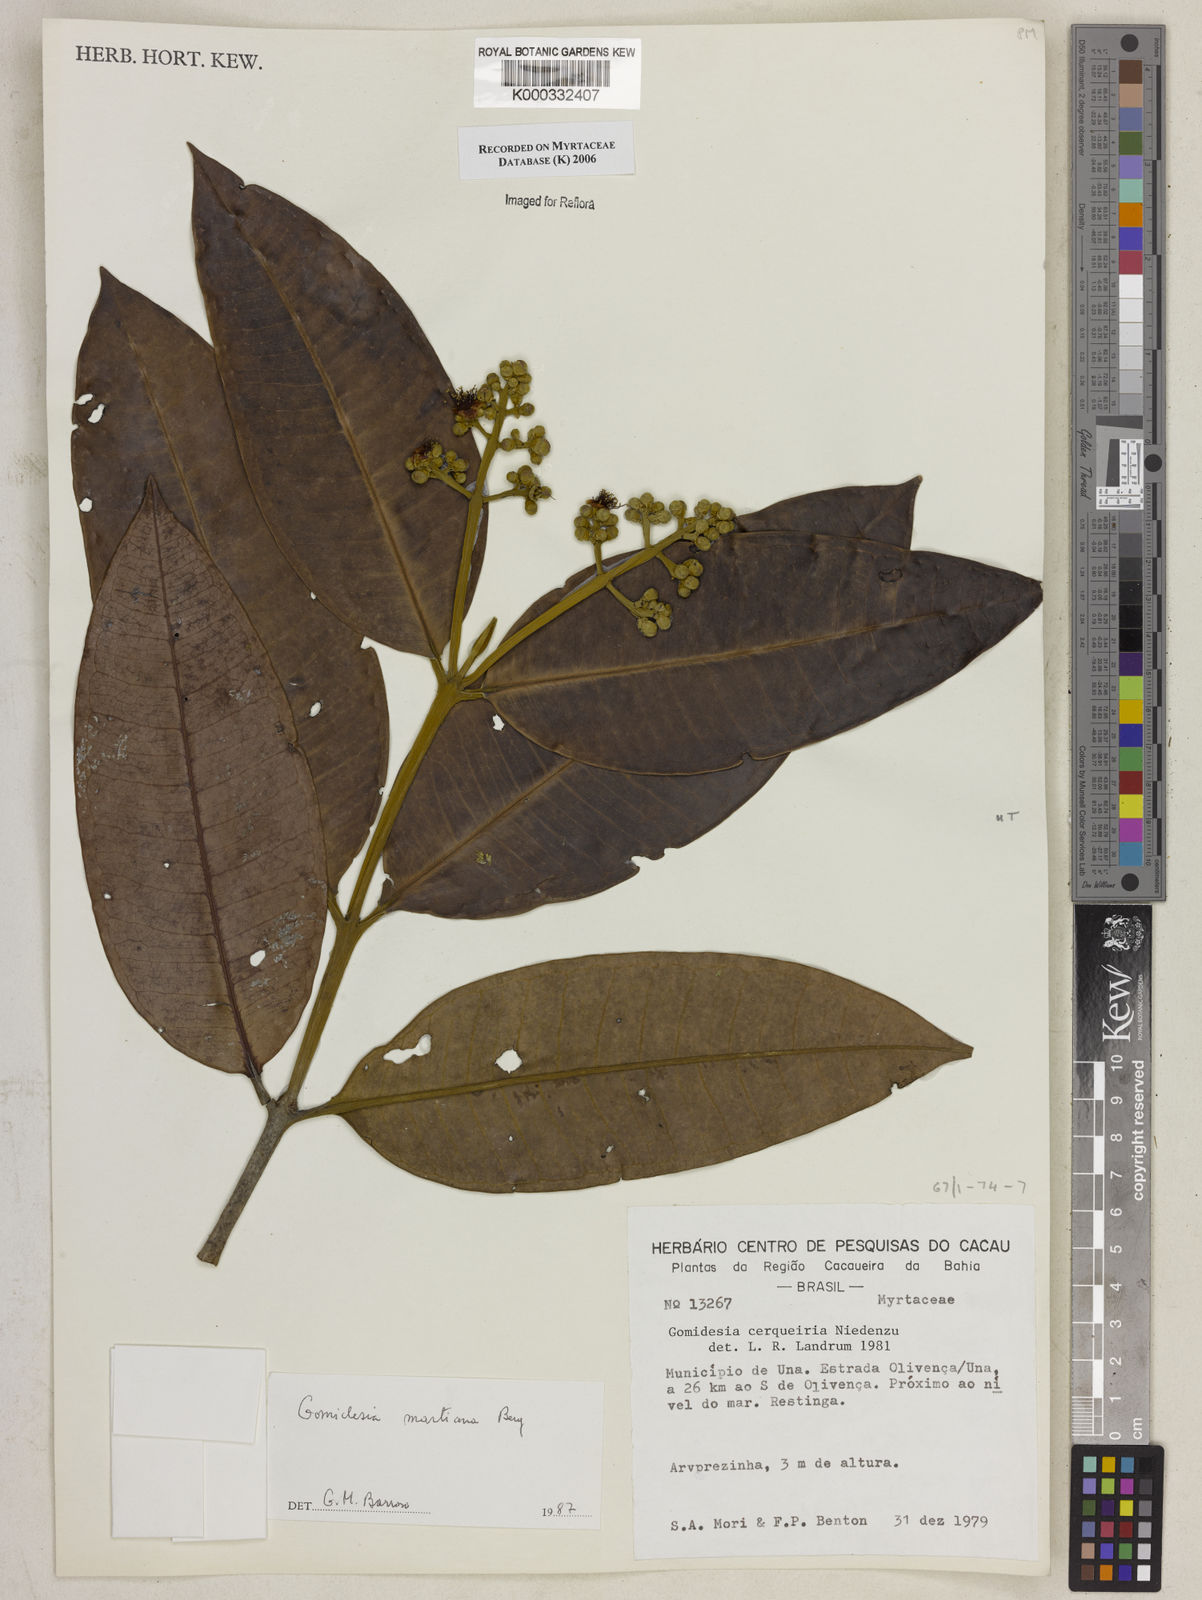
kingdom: Plantae
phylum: Tracheophyta
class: Magnoliopsida
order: Myrtales
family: Myrtaceae
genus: Myrcia
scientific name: Myrcia vittoriana
